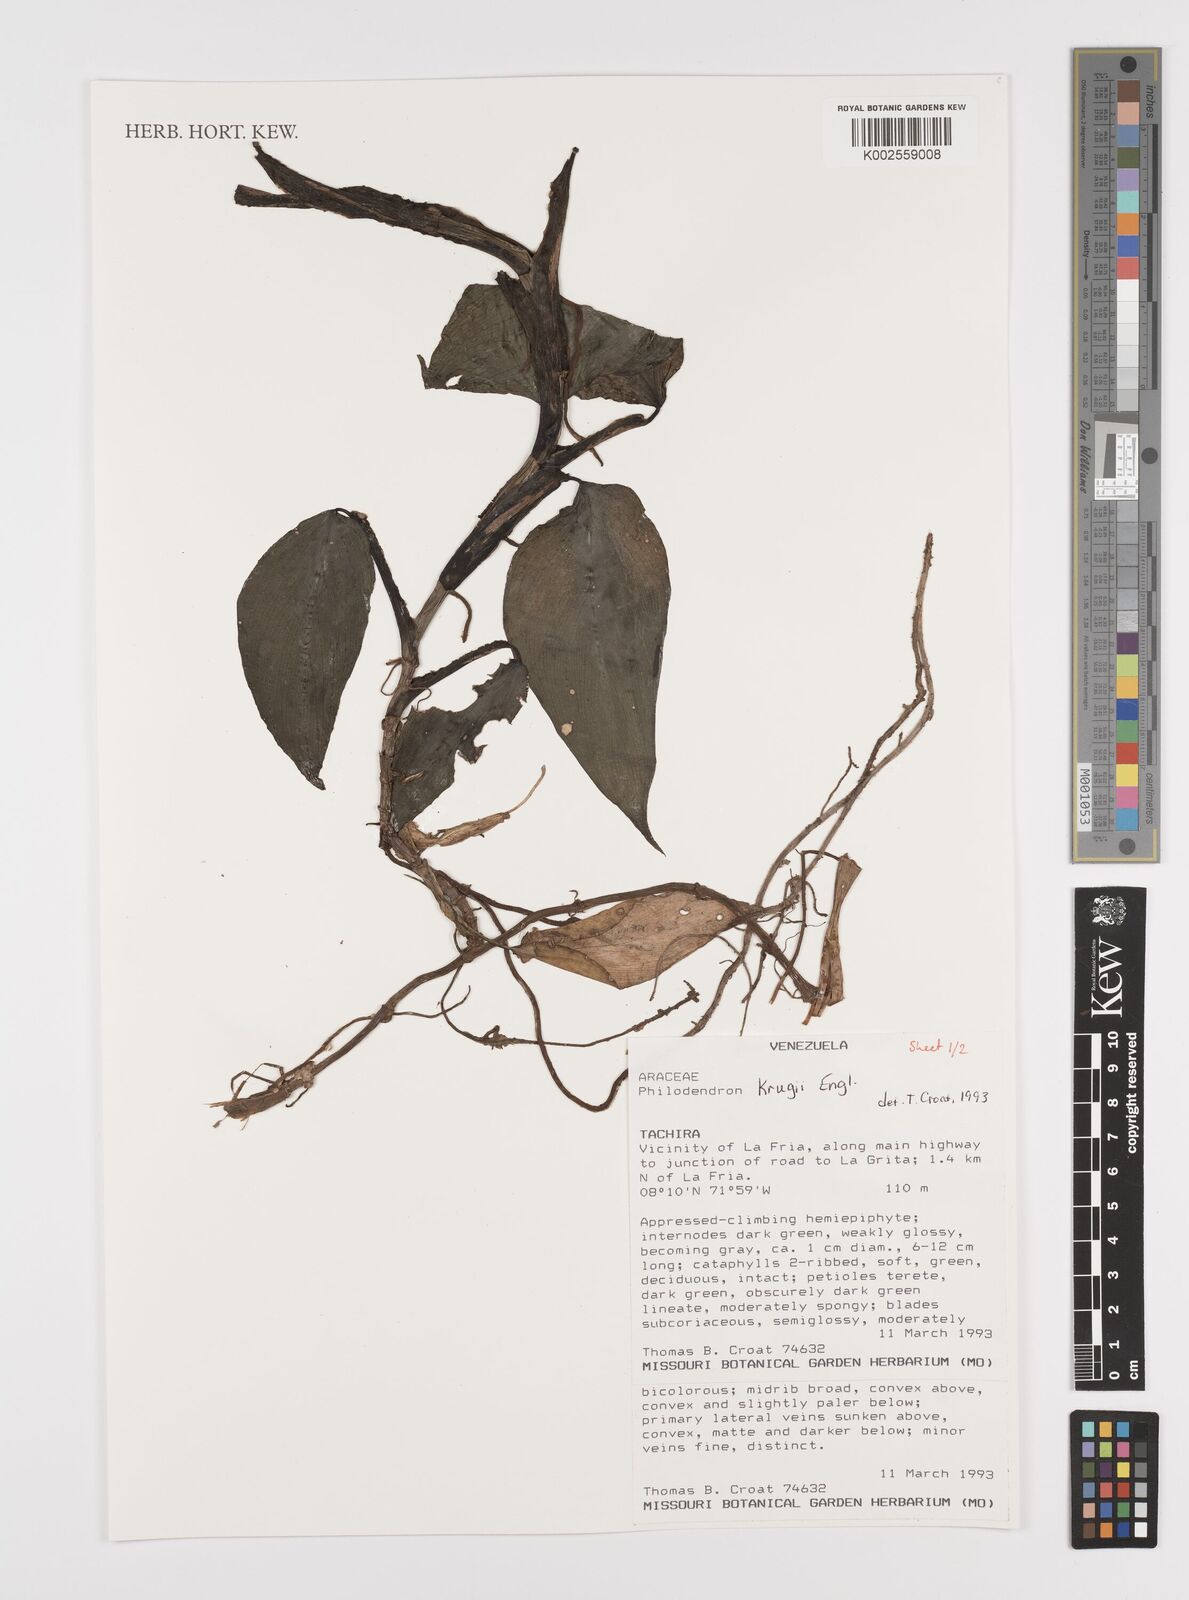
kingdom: Plantae
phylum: Tracheophyta
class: Liliopsida
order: Alismatales
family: Araceae
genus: Philodendron
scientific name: Philodendron krugii
